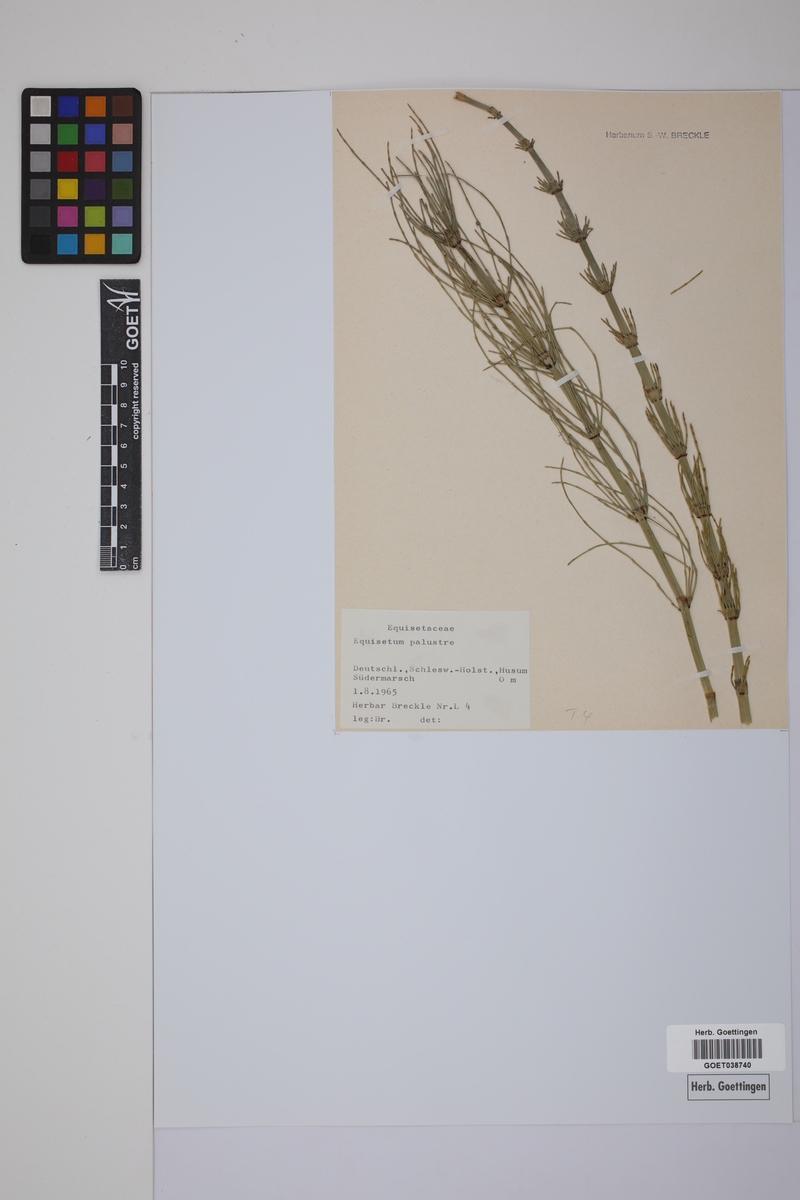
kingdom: Plantae
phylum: Tracheophyta
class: Polypodiopsida
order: Equisetales
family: Equisetaceae
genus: Equisetum
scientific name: Equisetum palustre
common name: Marsh horsetail
